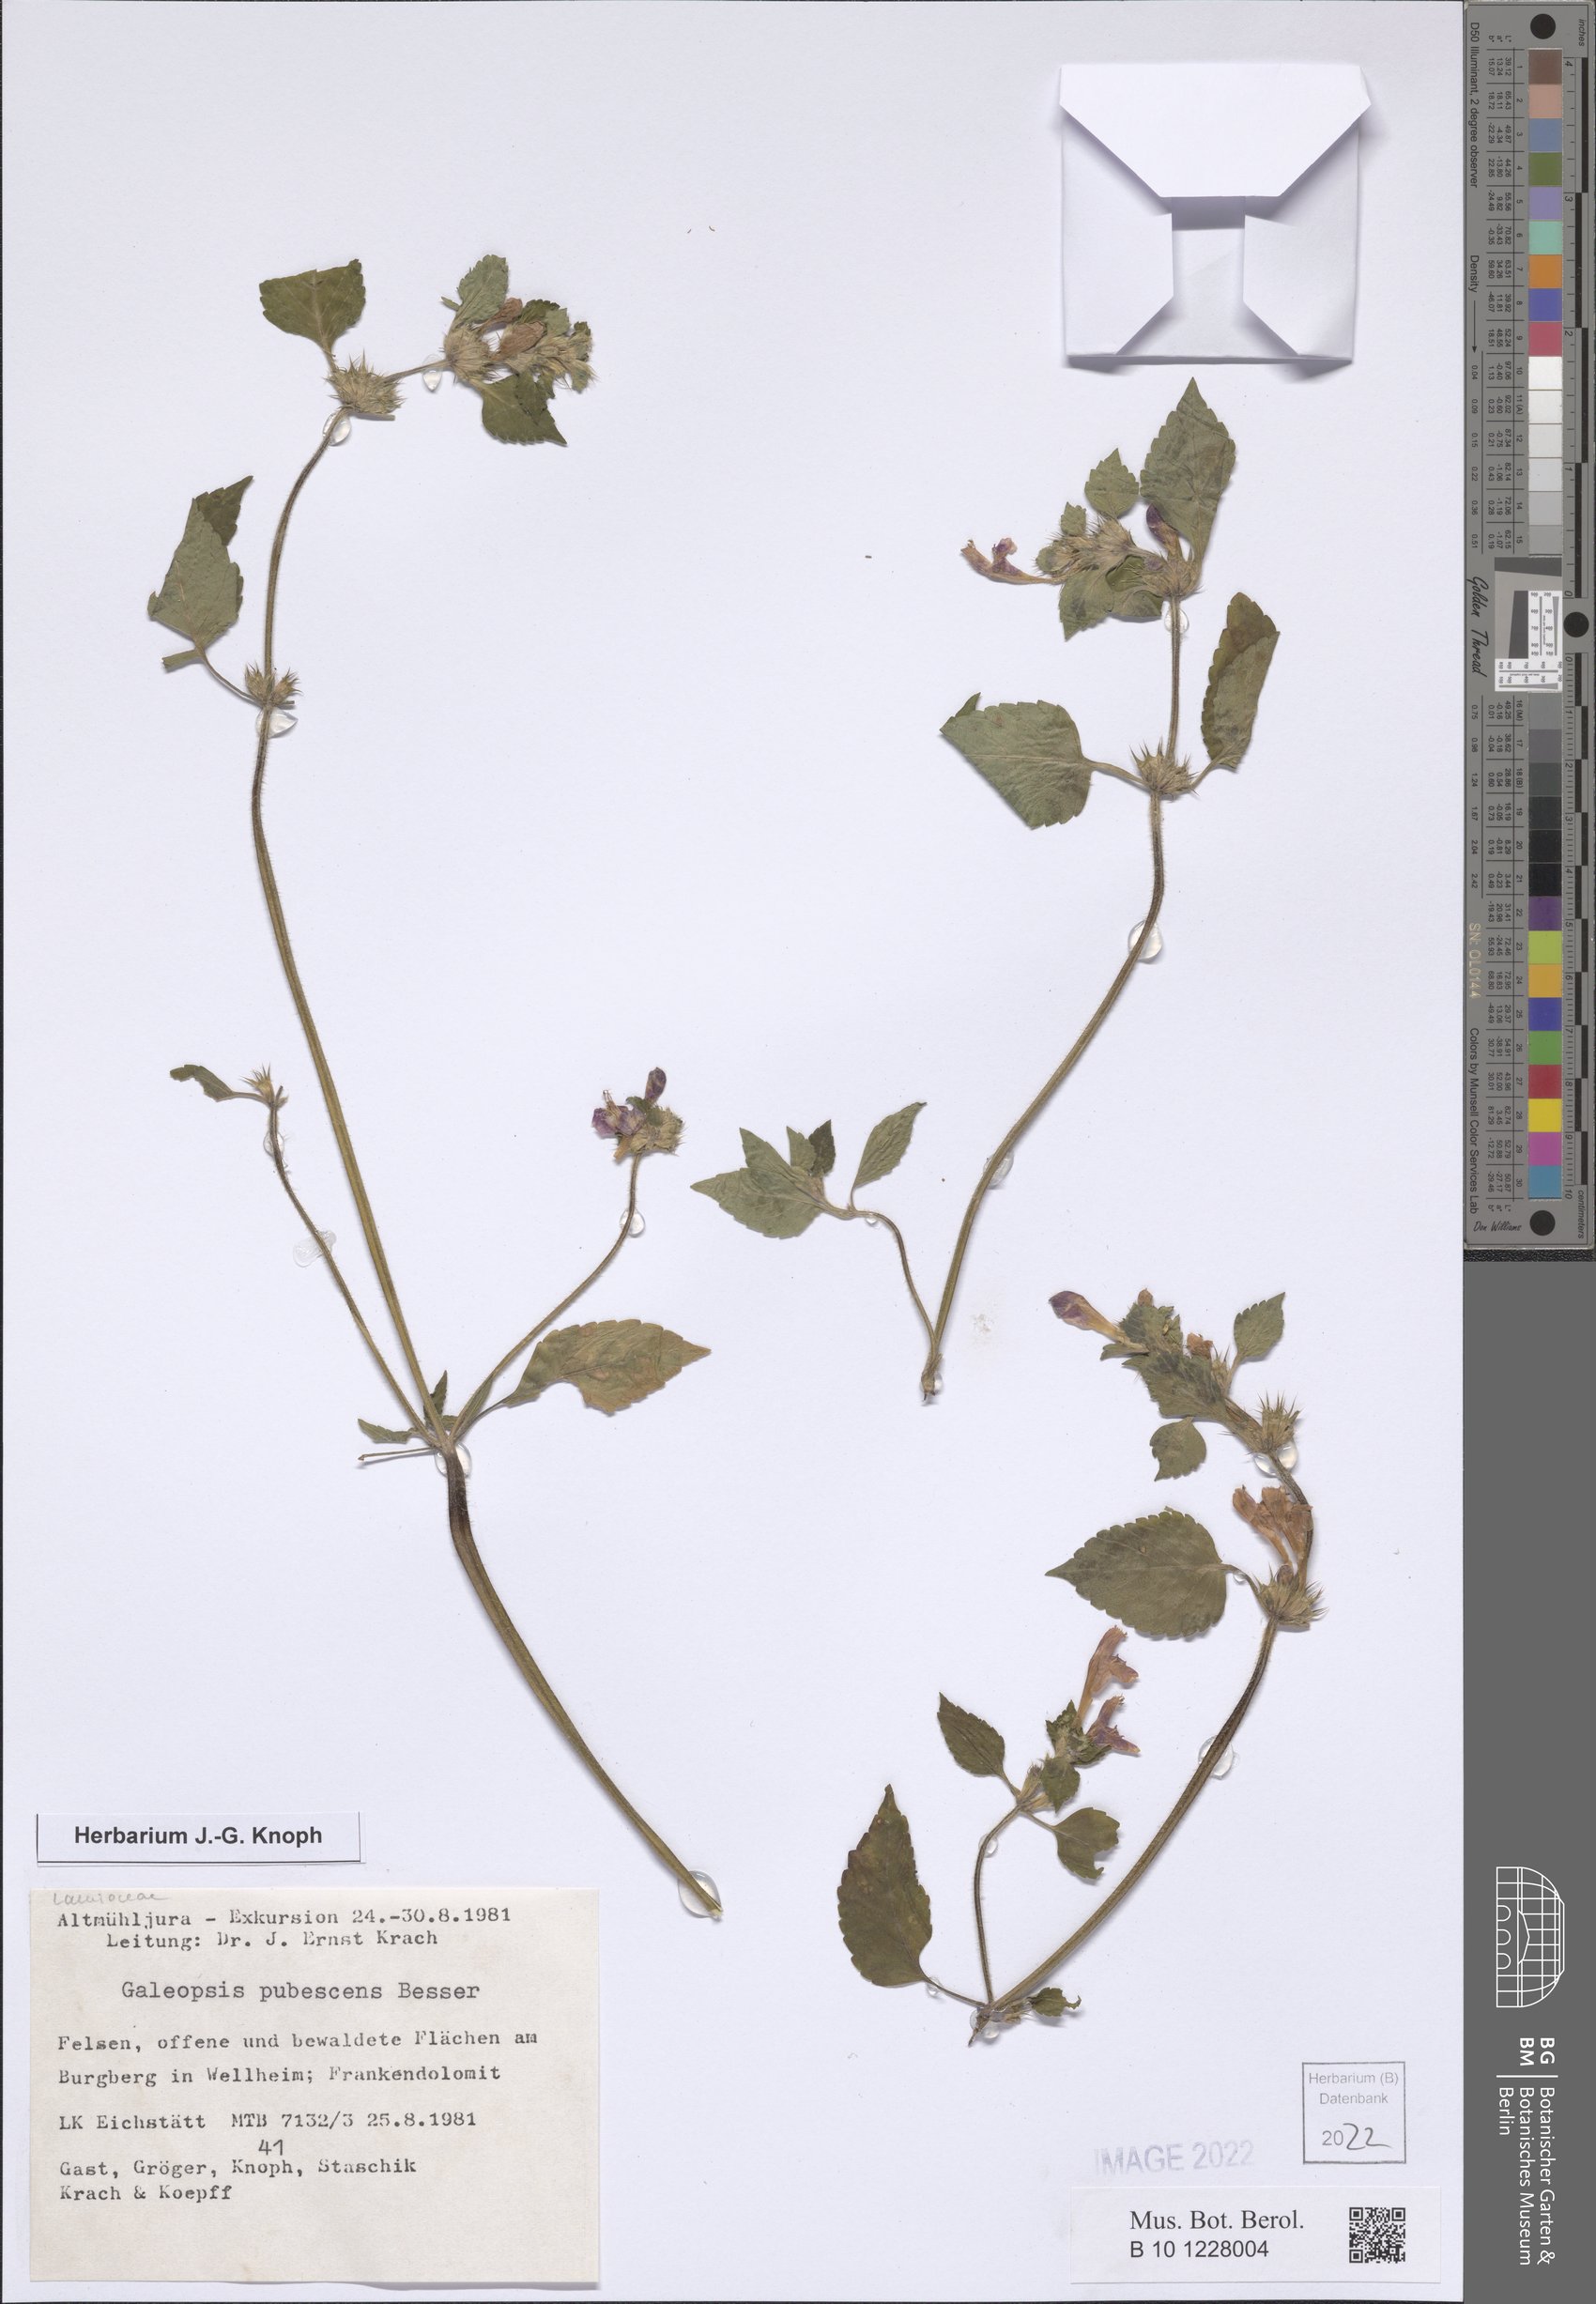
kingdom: Plantae
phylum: Tracheophyta
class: Magnoliopsida
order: Lamiales
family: Lamiaceae
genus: Galeopsis
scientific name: Galeopsis pubescens
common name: Downy hemp-nettle
